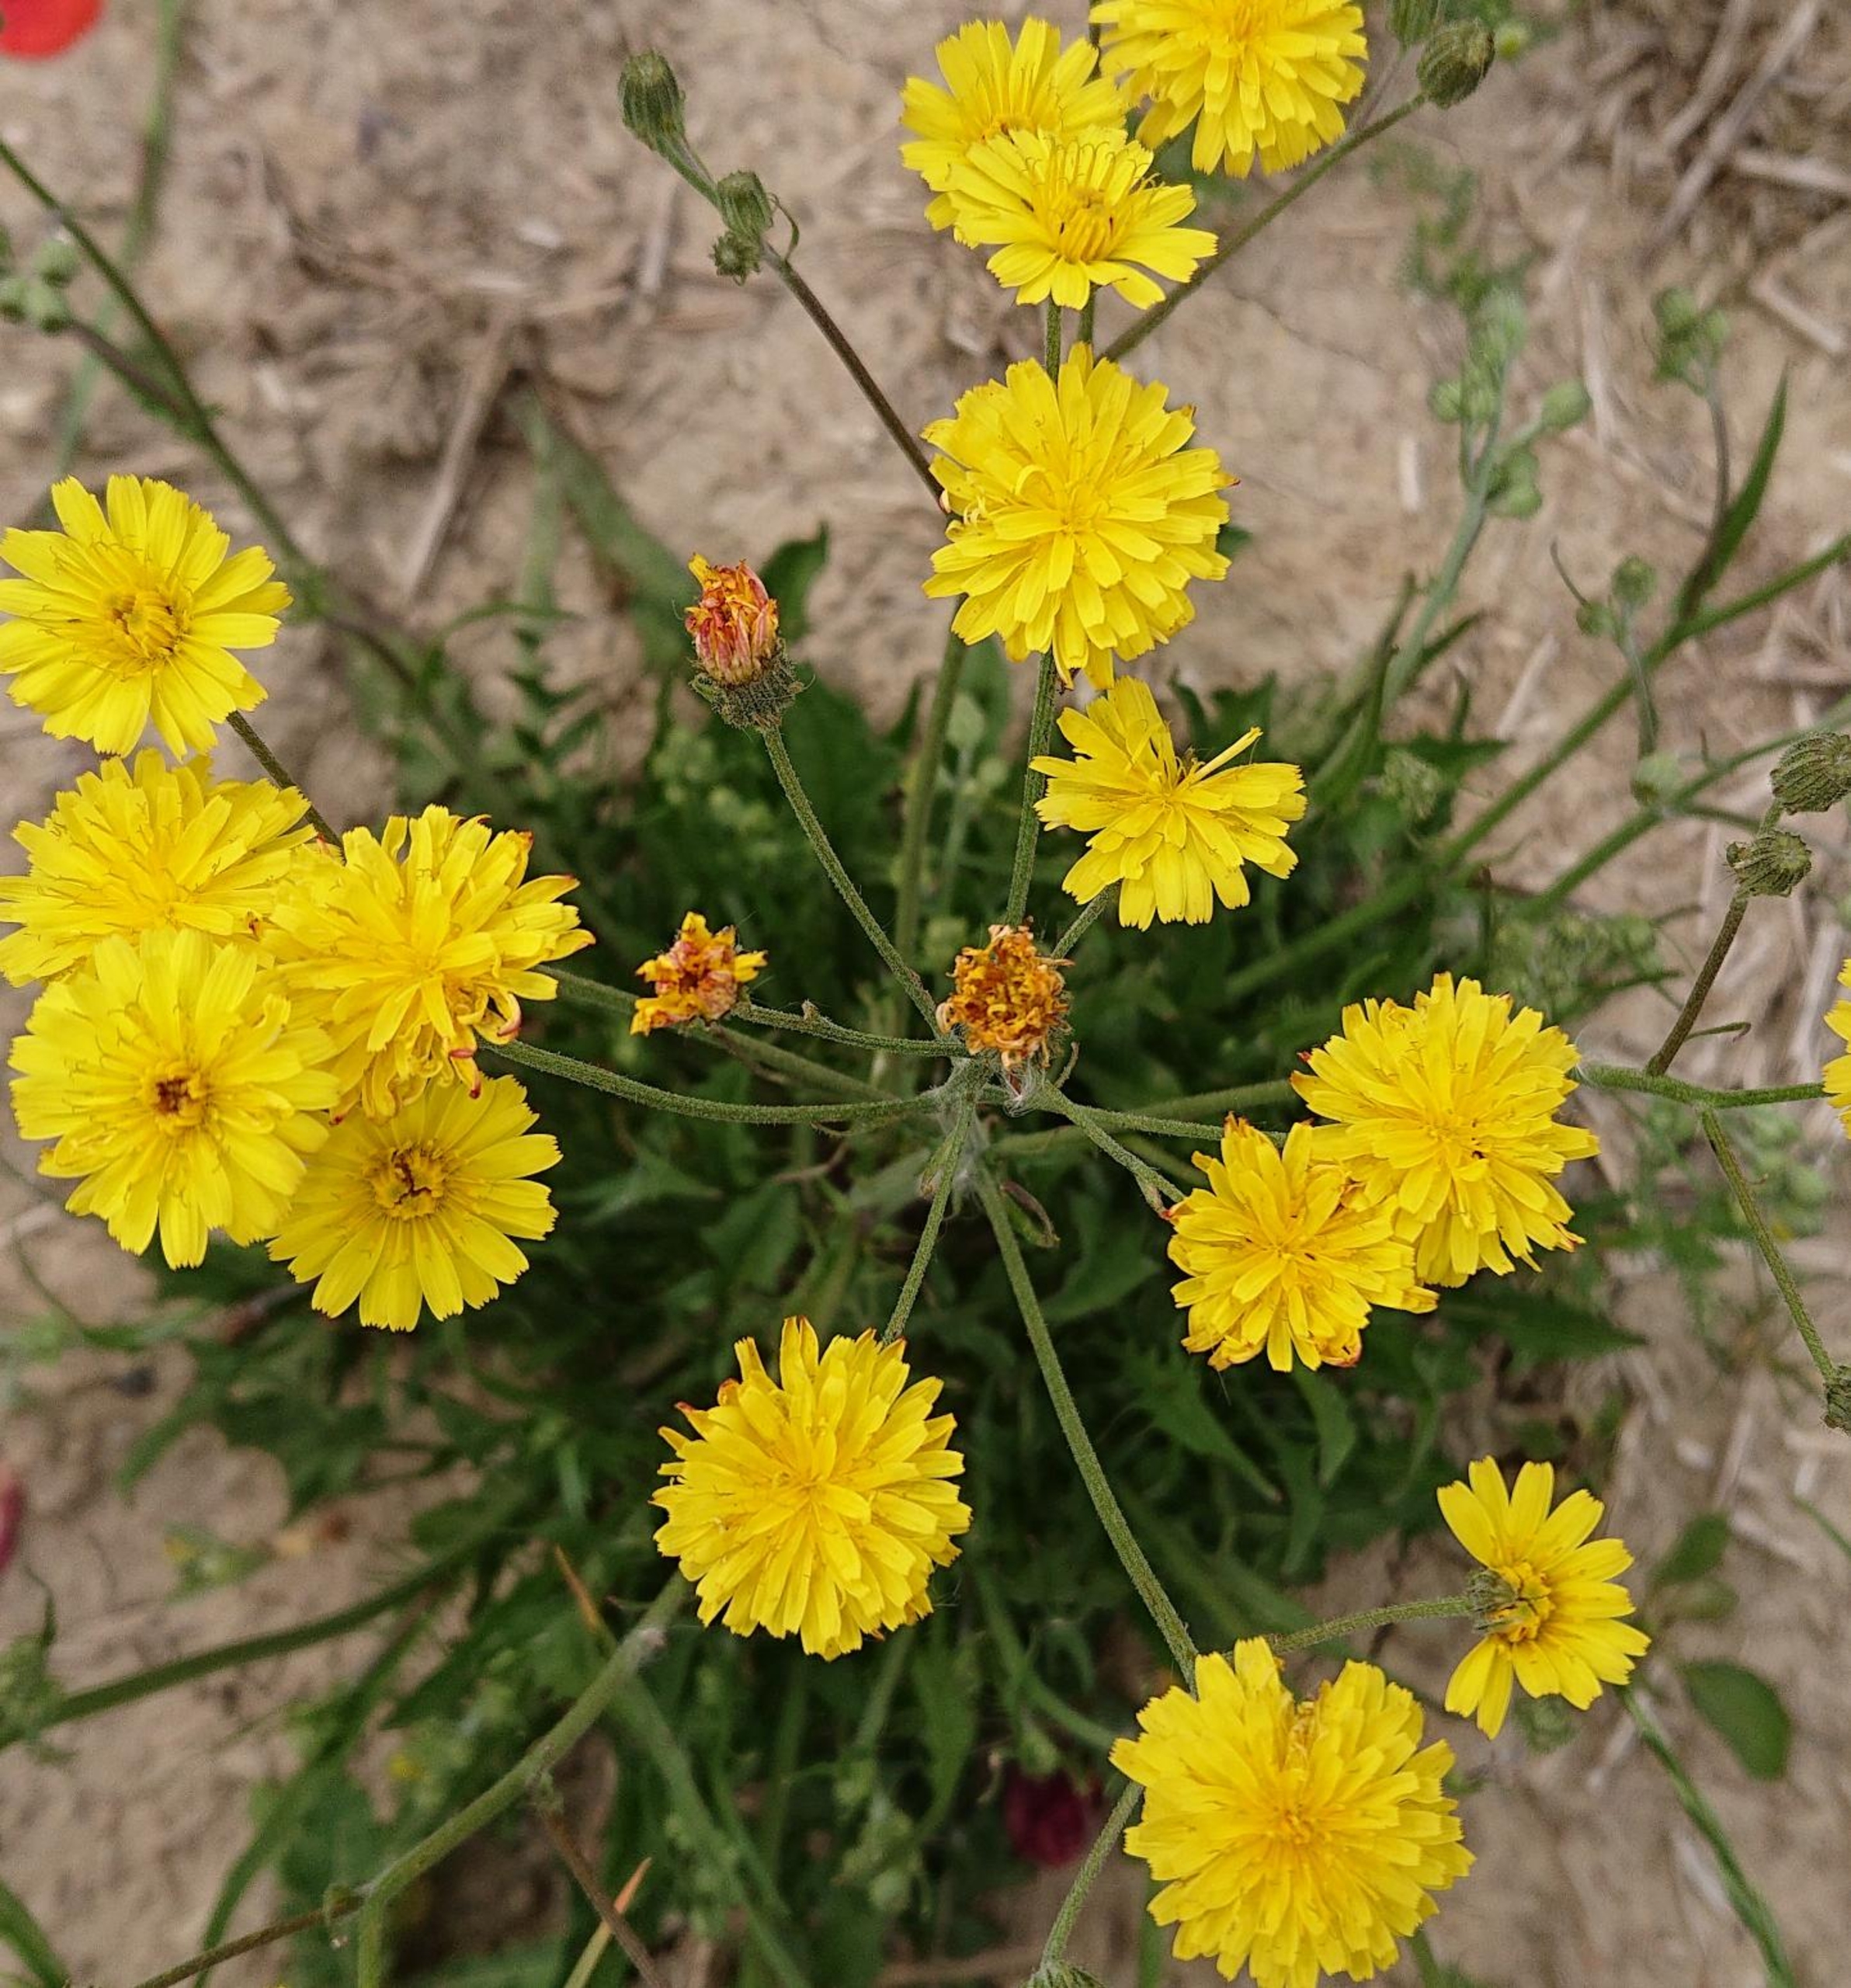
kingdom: Plantae
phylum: Tracheophyta
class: Magnoliopsida
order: Asterales
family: Asteraceae
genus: Crepis
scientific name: Crepis capillaris
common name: Grøn høgeskæg
